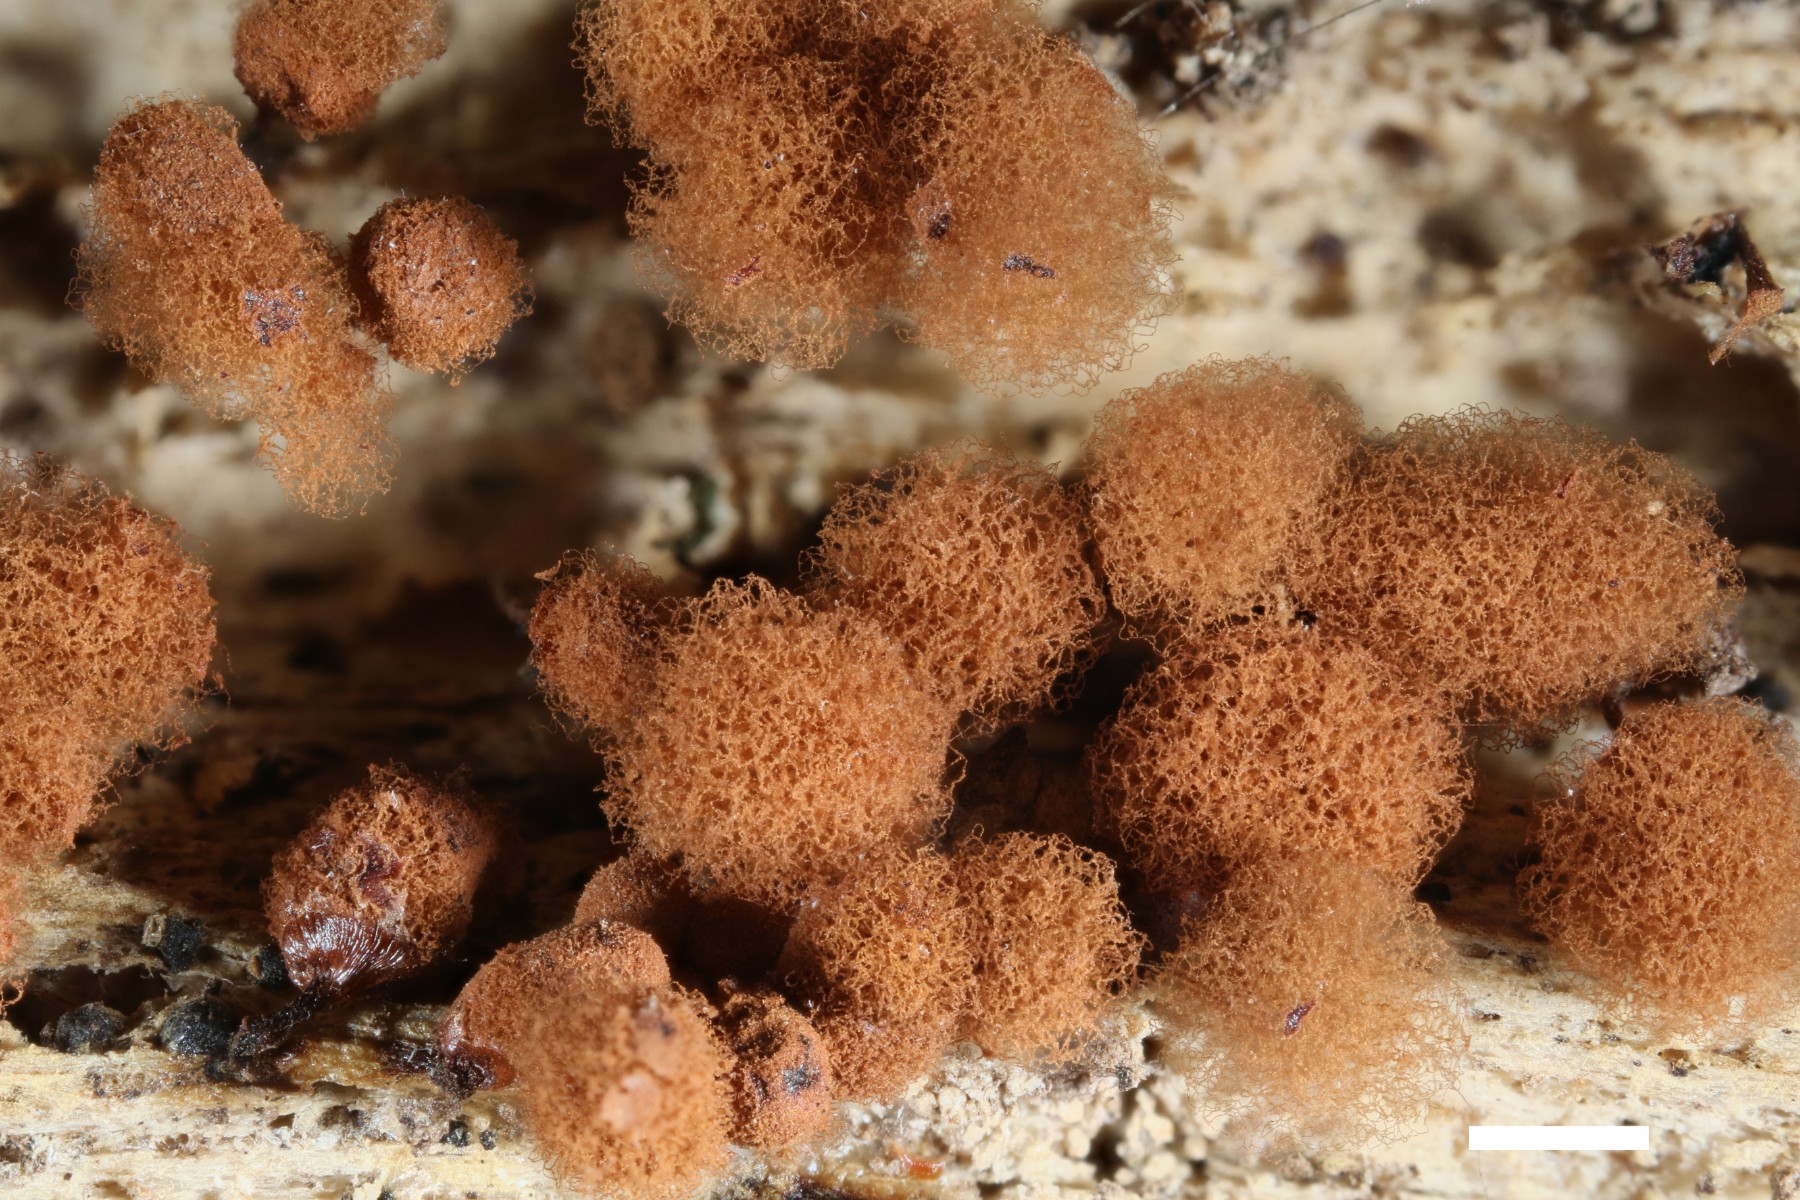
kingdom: Protozoa
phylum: Mycetozoa
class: Myxomycetes
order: Trichiales
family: Arcyriaceae
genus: Arcyria
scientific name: Arcyria denudata
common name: karminrød skålsvøb
